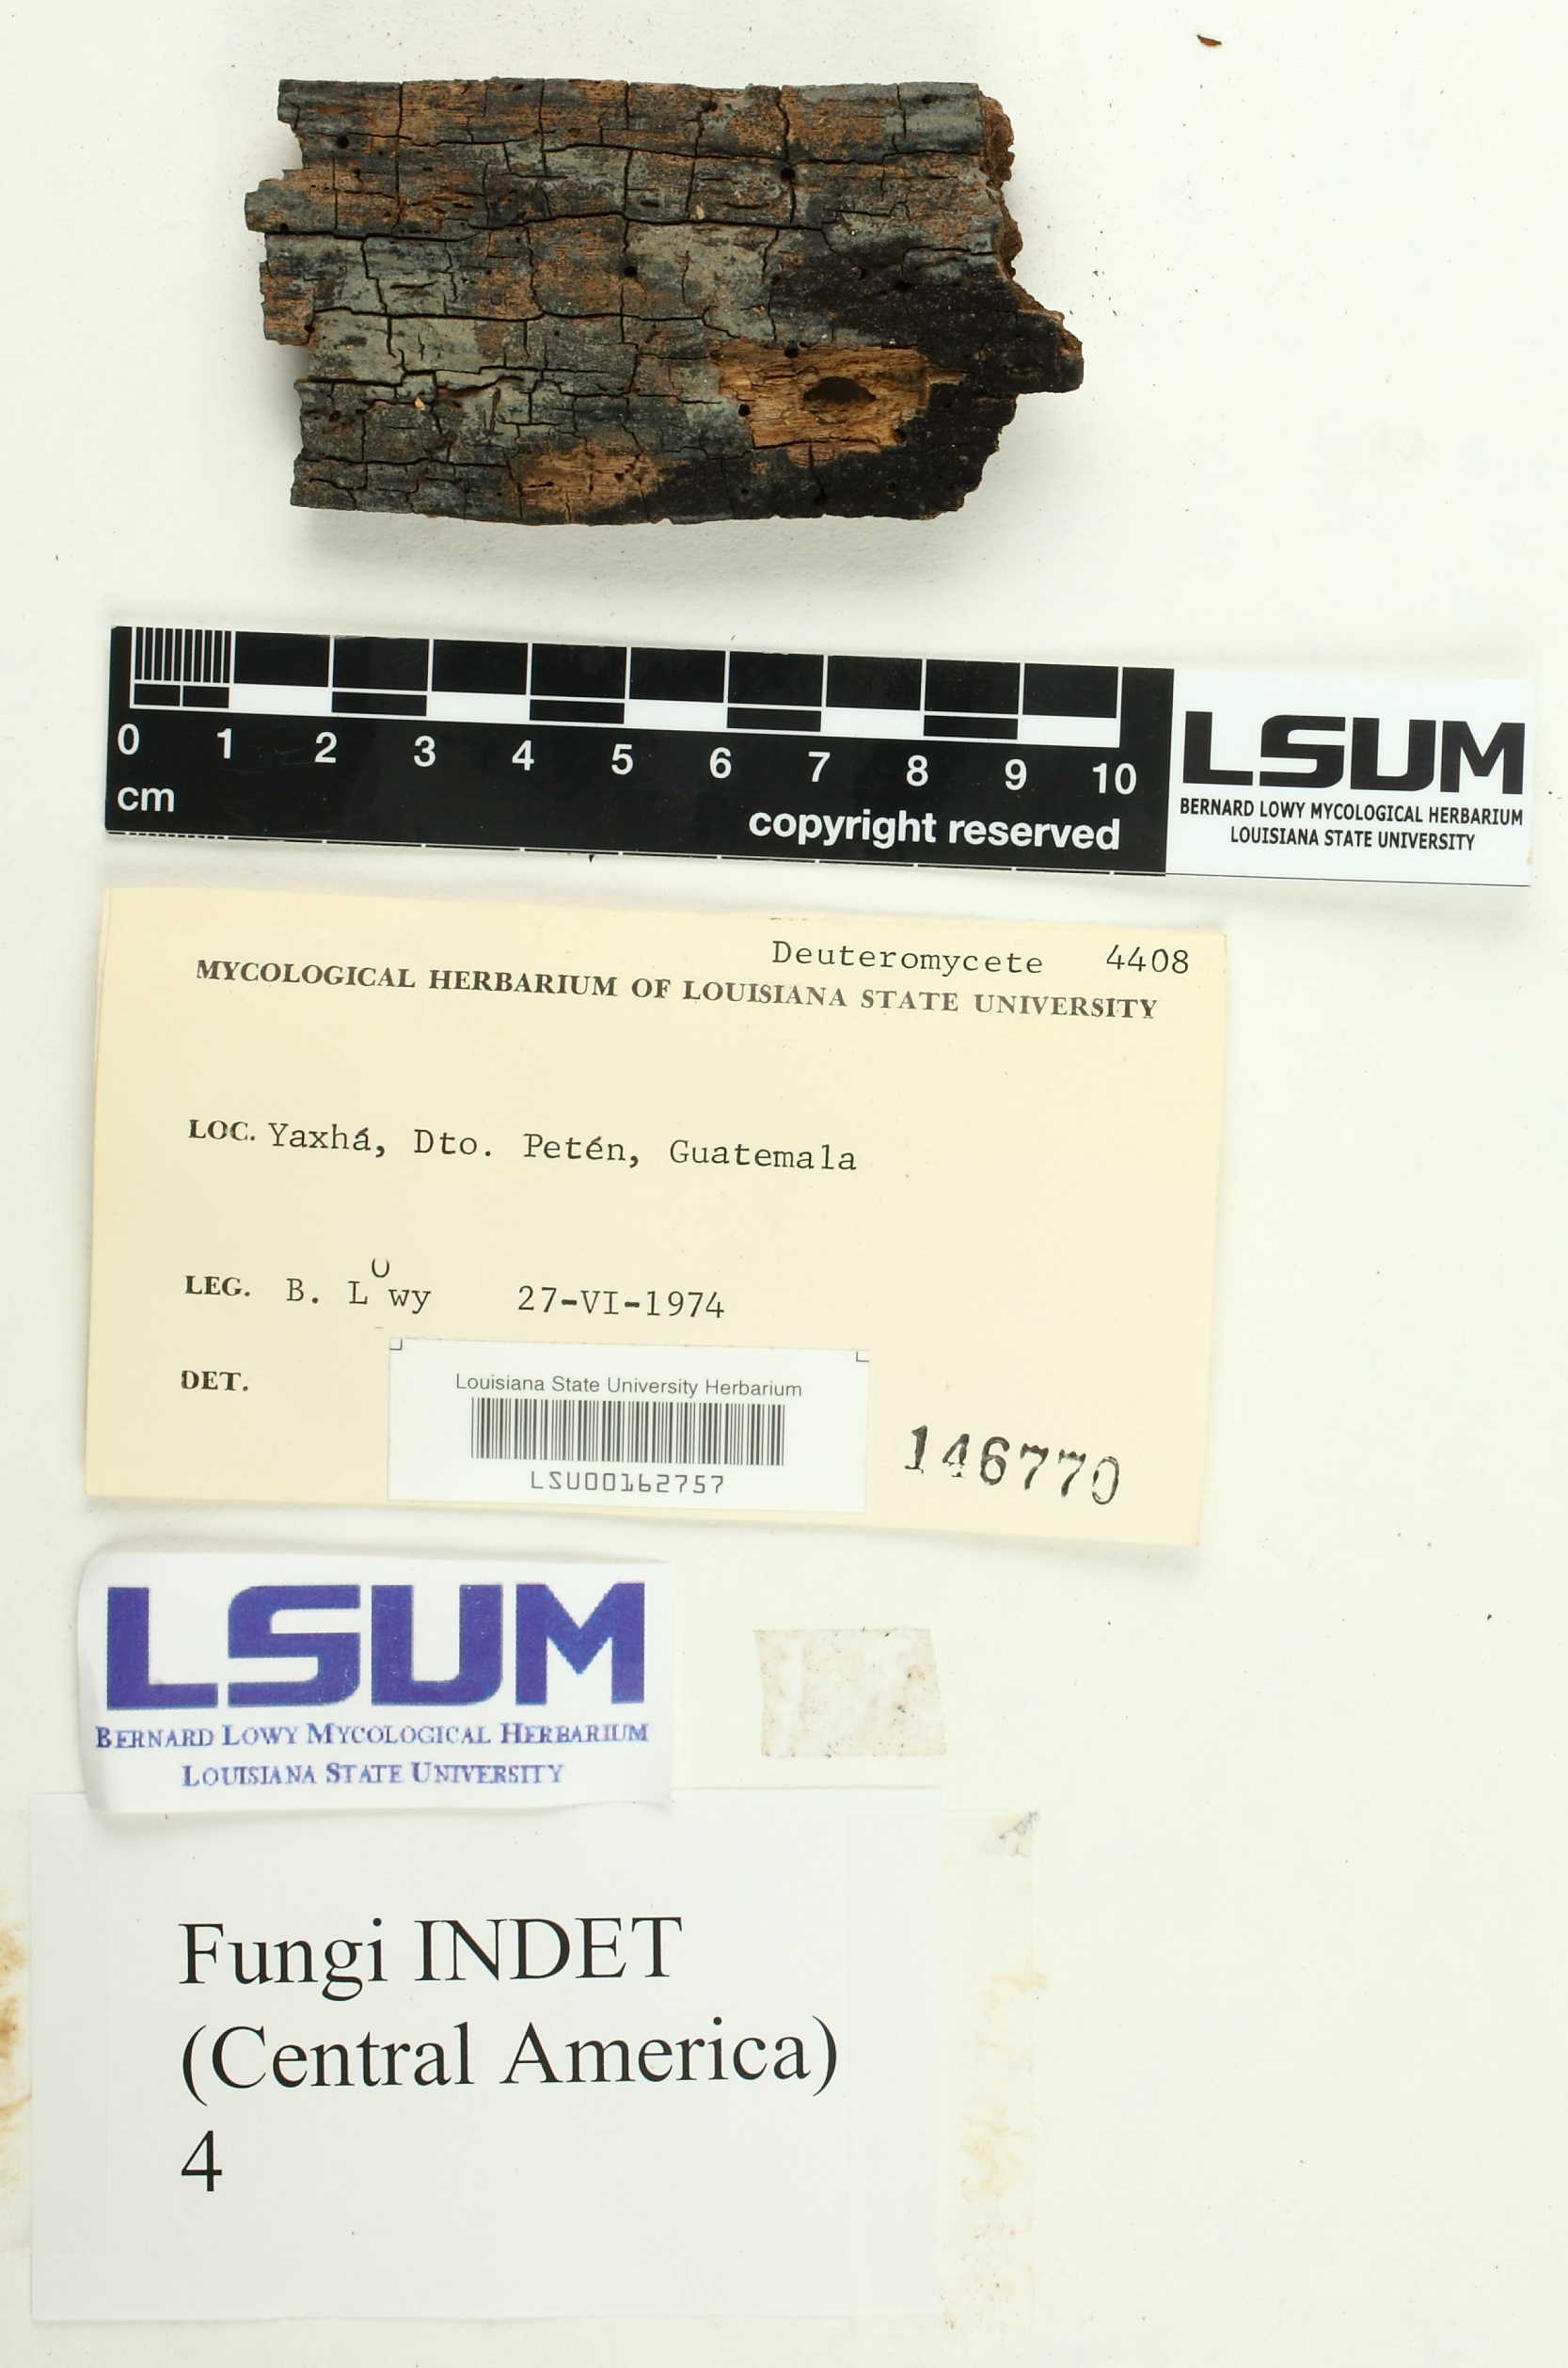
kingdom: Fungi
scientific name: Fungi
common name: Fungi
